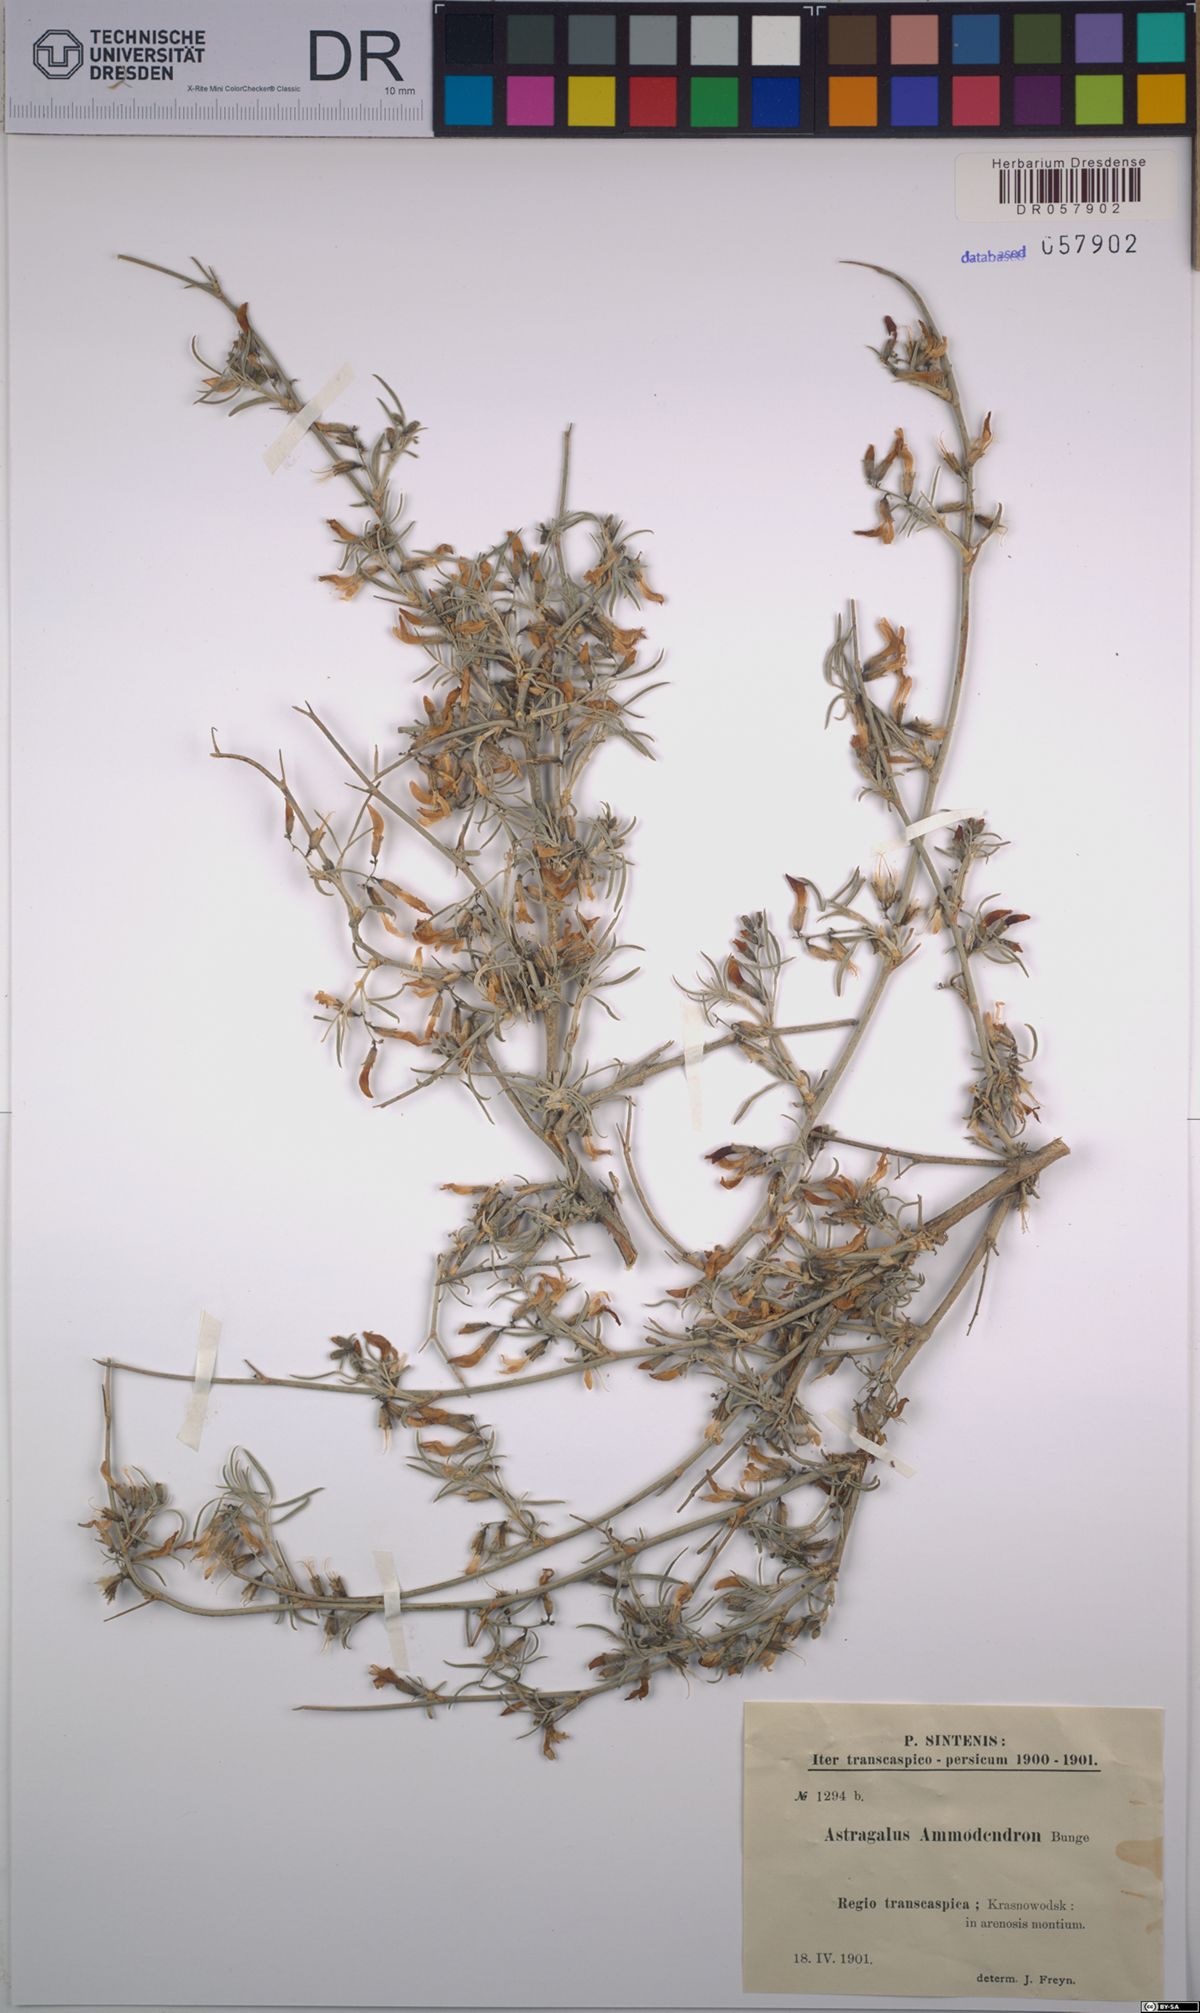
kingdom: Plantae
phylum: Tracheophyta
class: Magnoliopsida
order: Fabales
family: Fabaceae
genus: Astragalus
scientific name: Astragalus ammodendron
